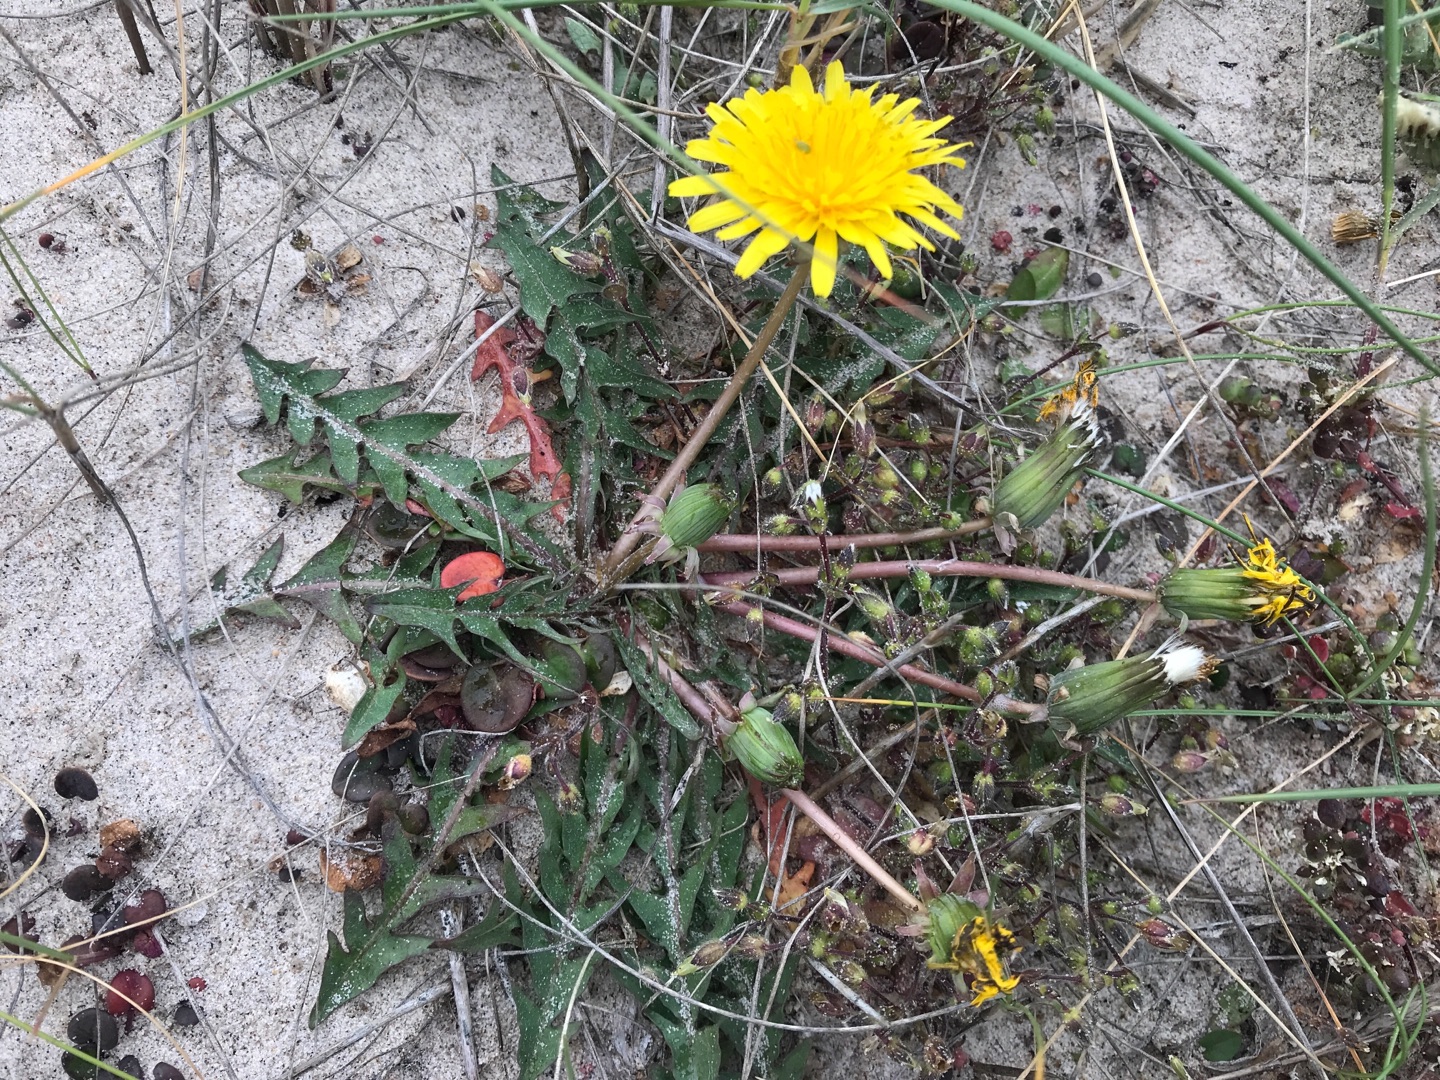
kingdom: Plantae
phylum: Tracheophyta
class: Magnoliopsida
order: Asterales
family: Asteraceae
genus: Taraxacum
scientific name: Taraxacum
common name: Mælkebøtteslægten
